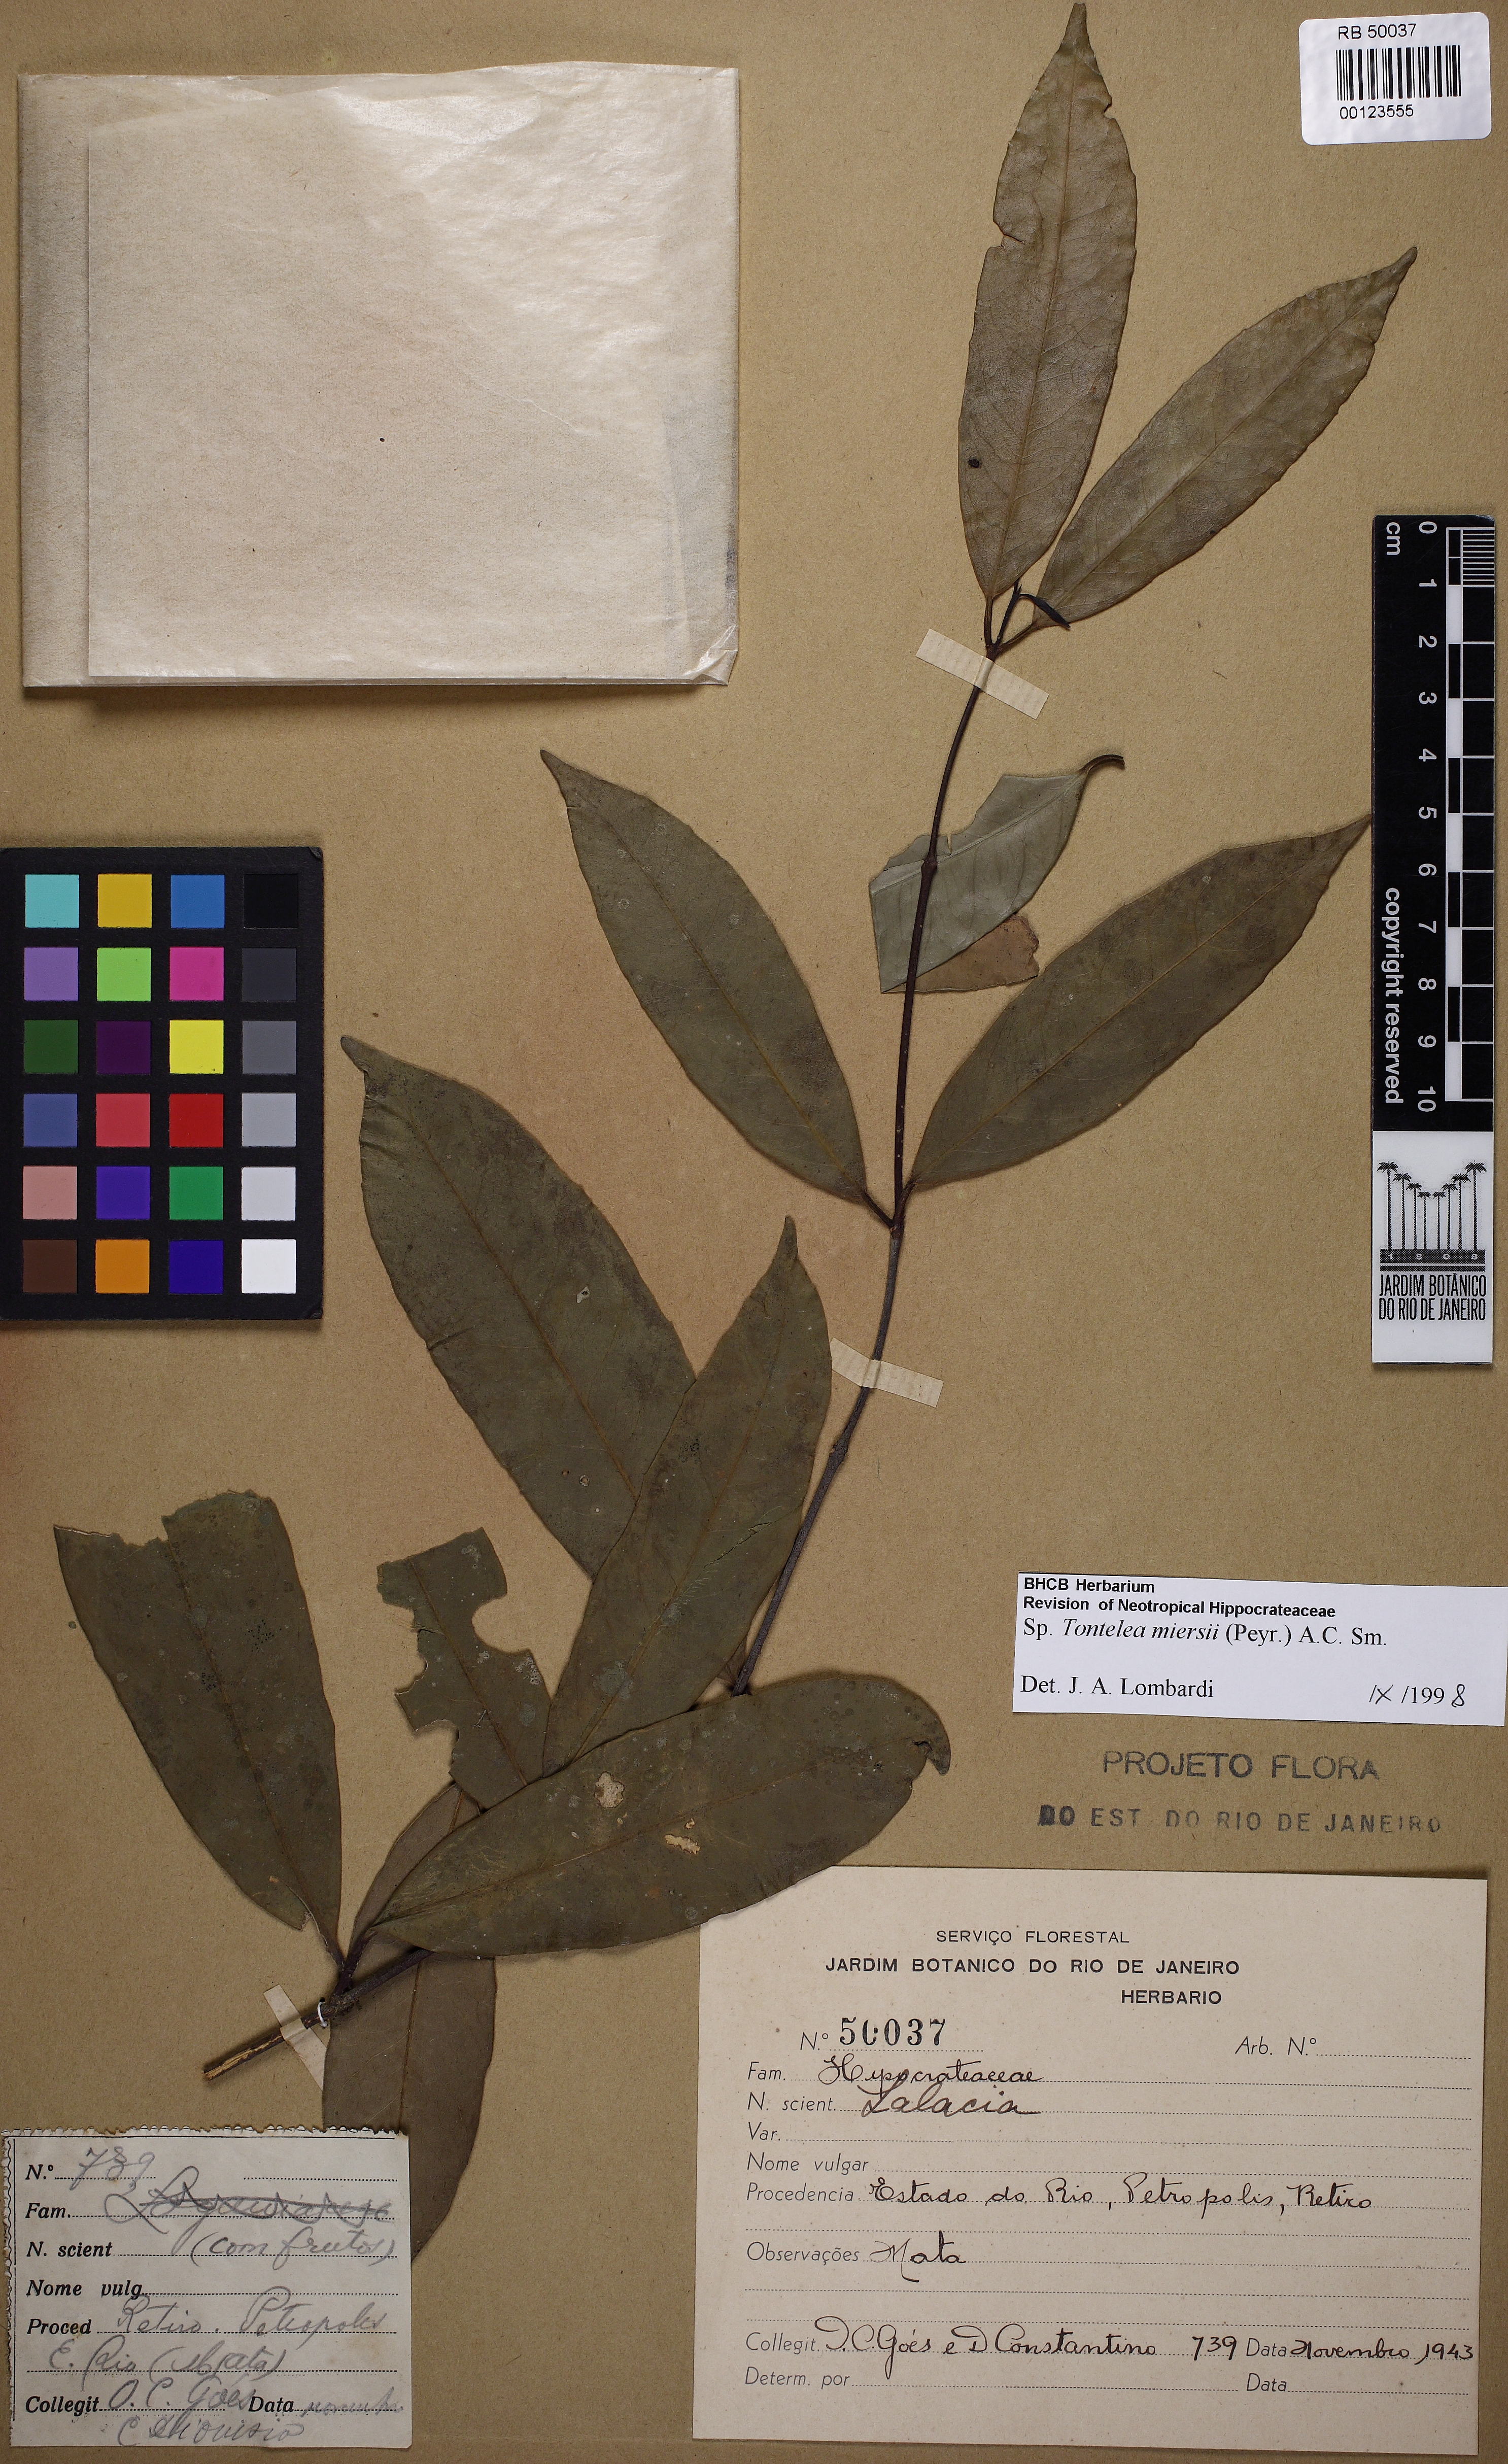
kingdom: Plantae
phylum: Tracheophyta
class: Magnoliopsida
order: Celastrales
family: Celastraceae
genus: Tontelea
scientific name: Tontelea miersii
